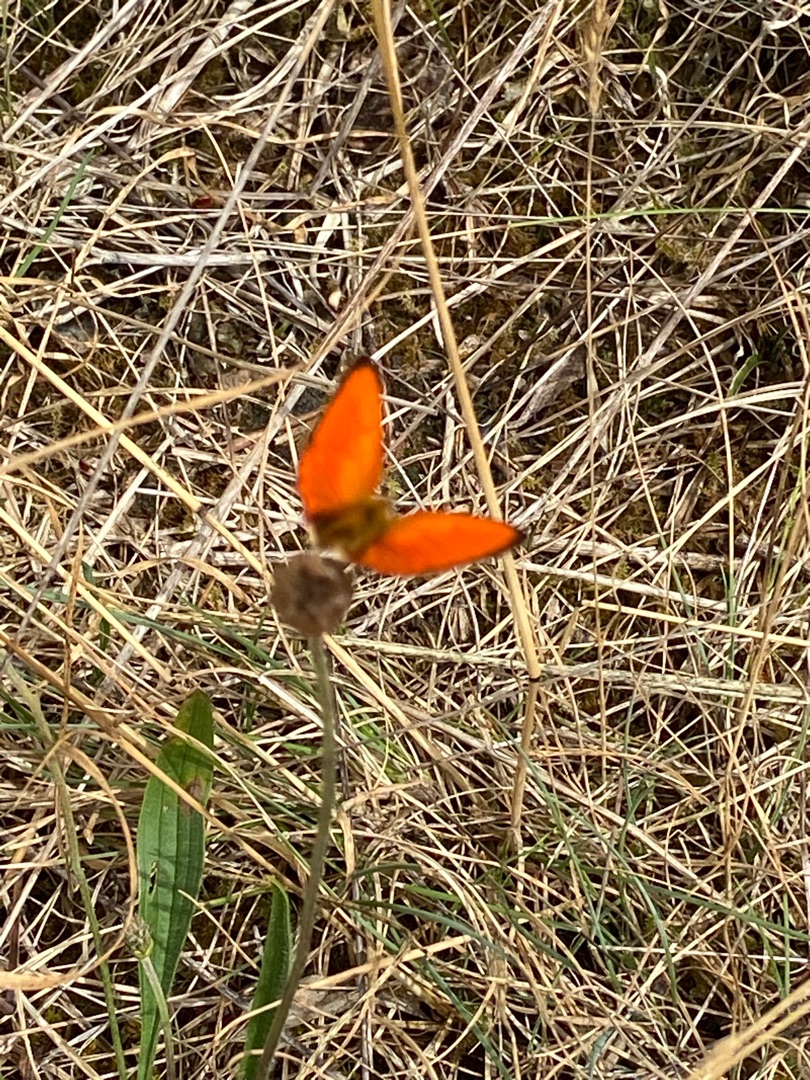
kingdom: Animalia
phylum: Arthropoda
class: Insecta
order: Lepidoptera
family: Lycaenidae
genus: Lycaena
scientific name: Lycaena virgaureae
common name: Dukatsommerfugl
